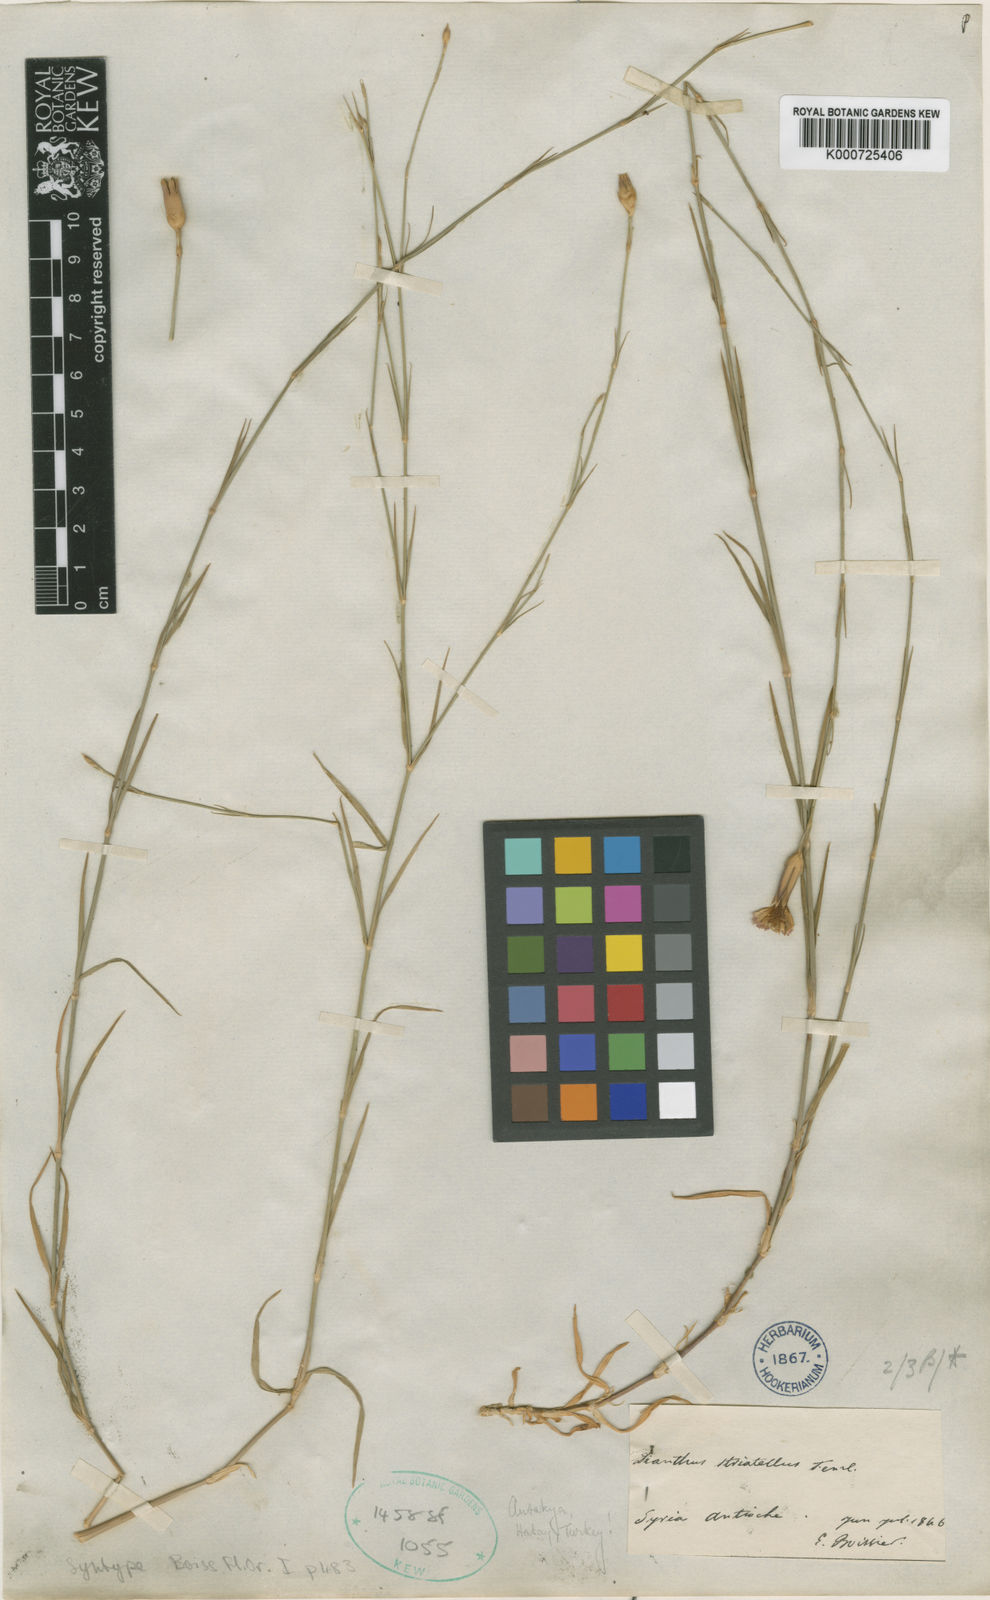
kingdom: Plantae
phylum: Tracheophyta
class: Magnoliopsida
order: Caryophyllales
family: Caryophyllaceae
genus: Dianthus
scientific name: Dianthus strictus
